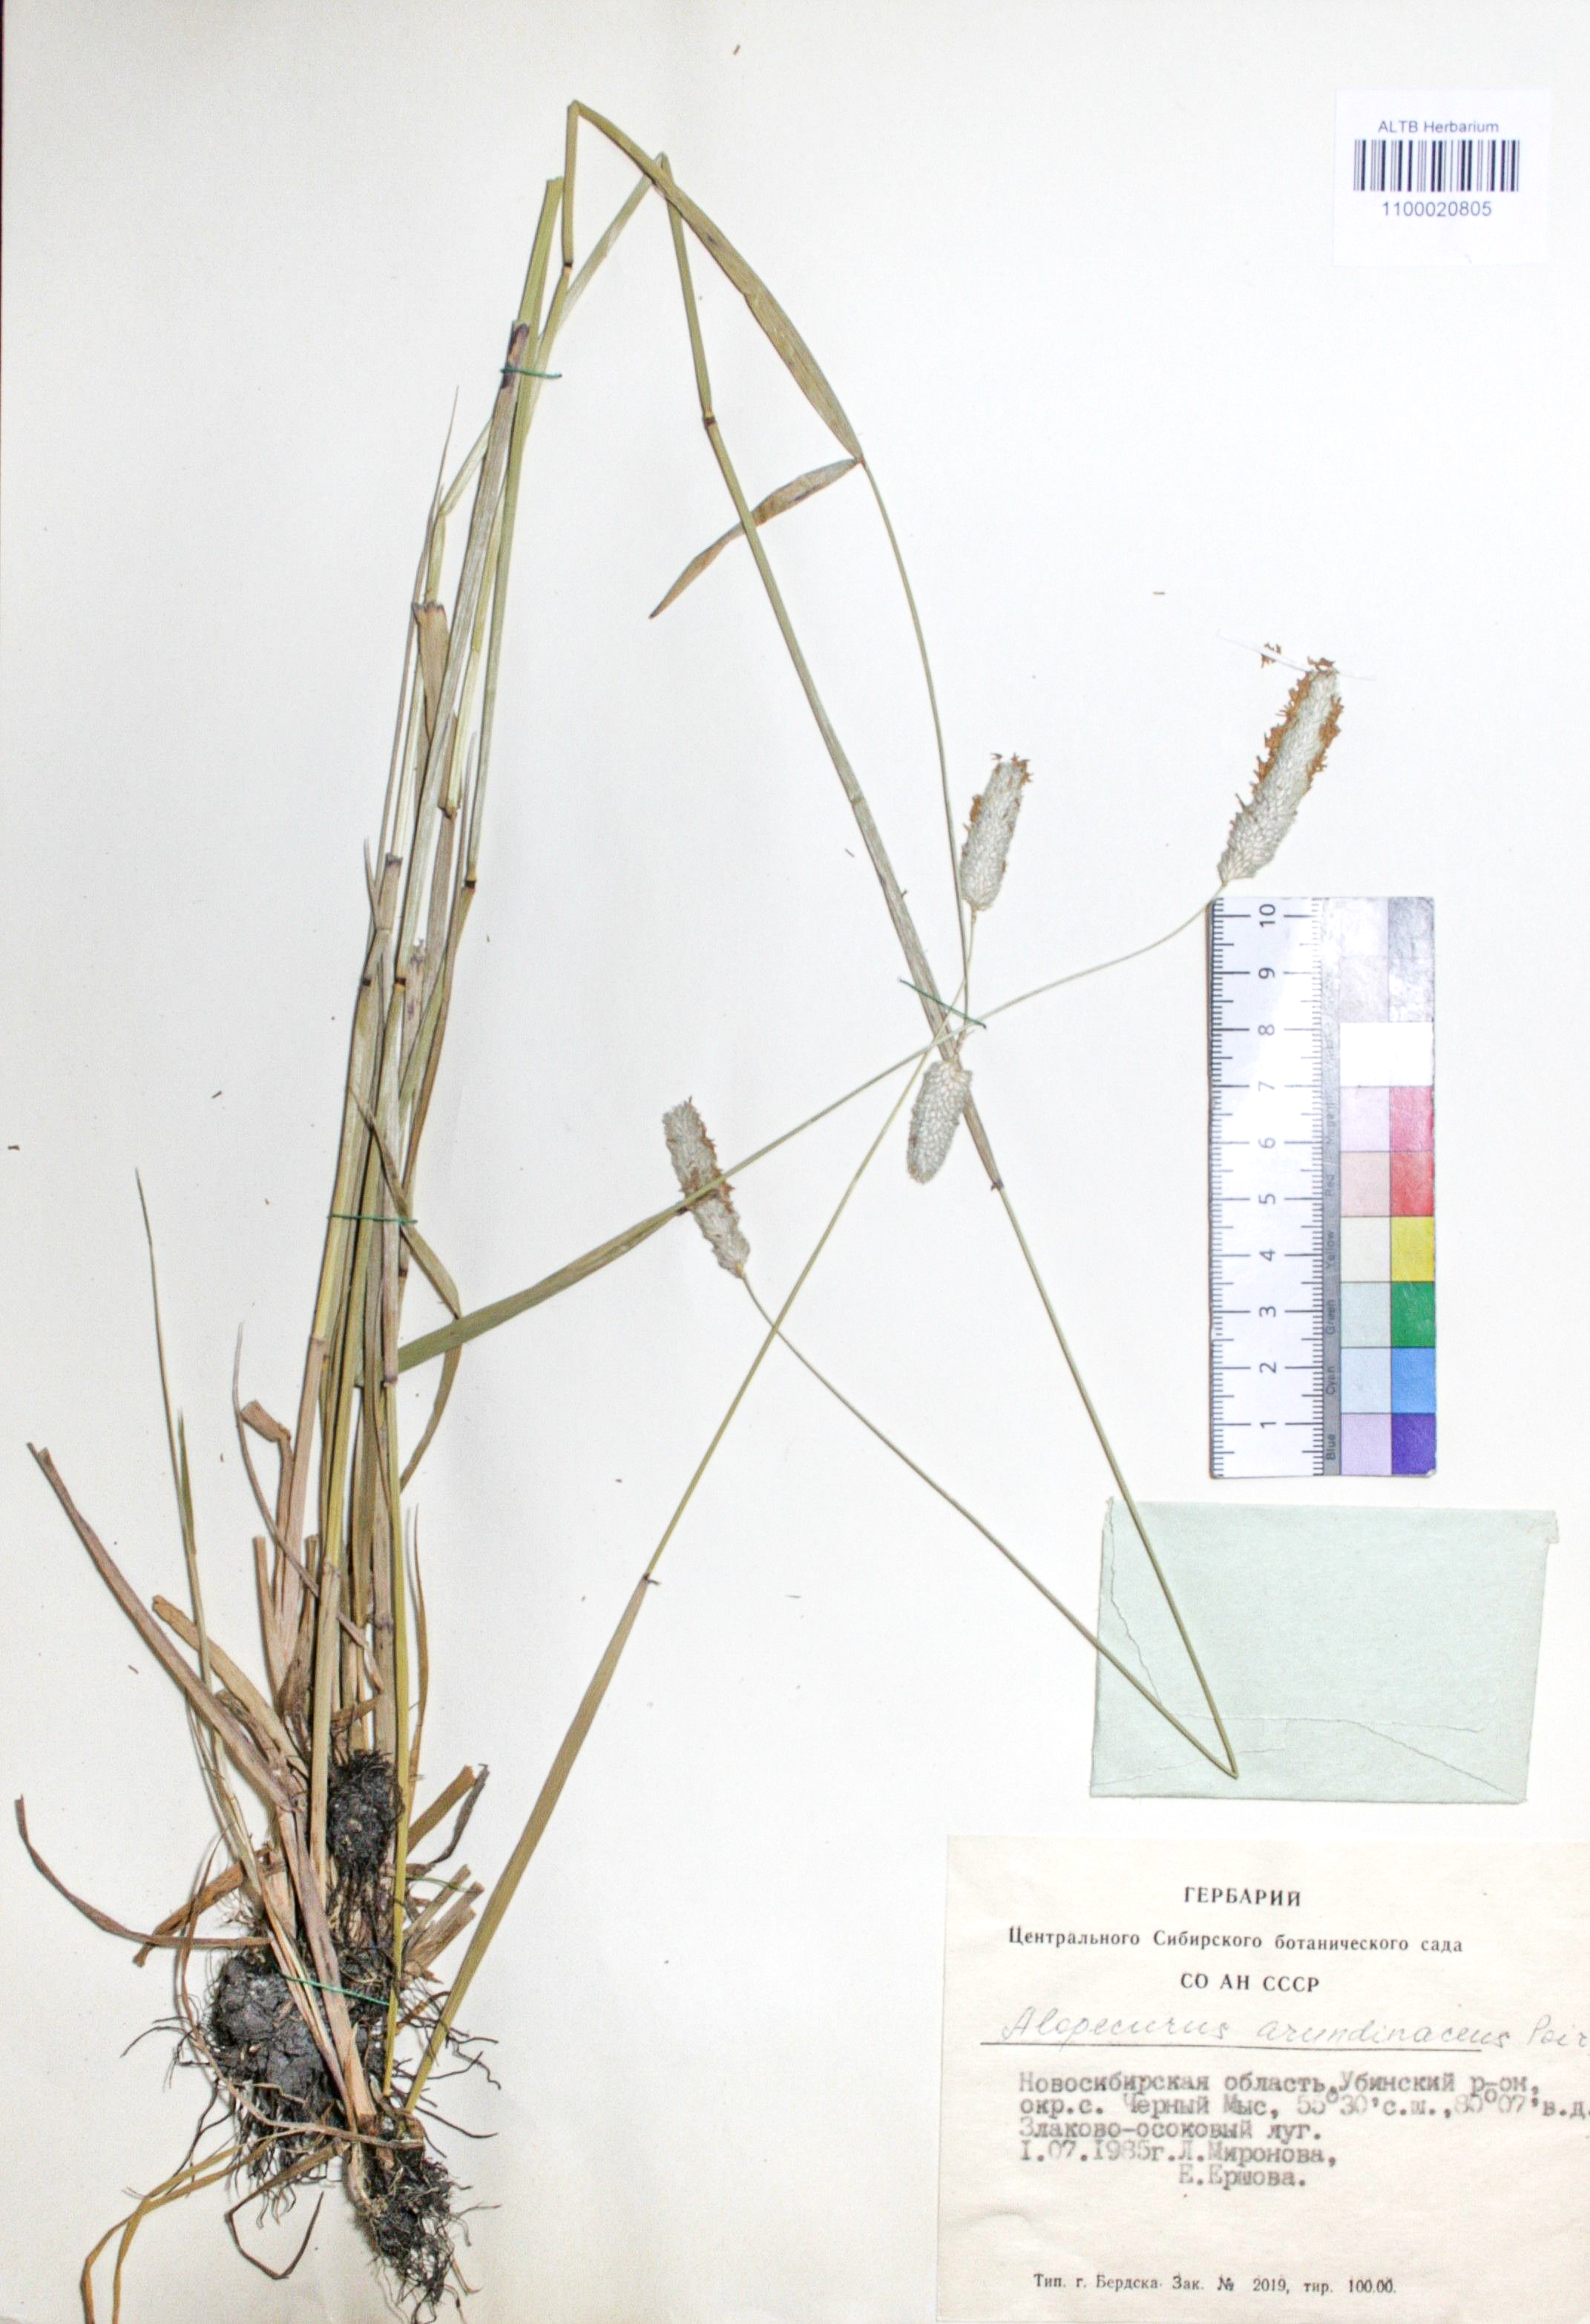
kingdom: Plantae
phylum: Tracheophyta
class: Liliopsida
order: Poales
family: Poaceae
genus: Alopecurus
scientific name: Alopecurus arundinaceus
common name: Creeping meadow foxtail
